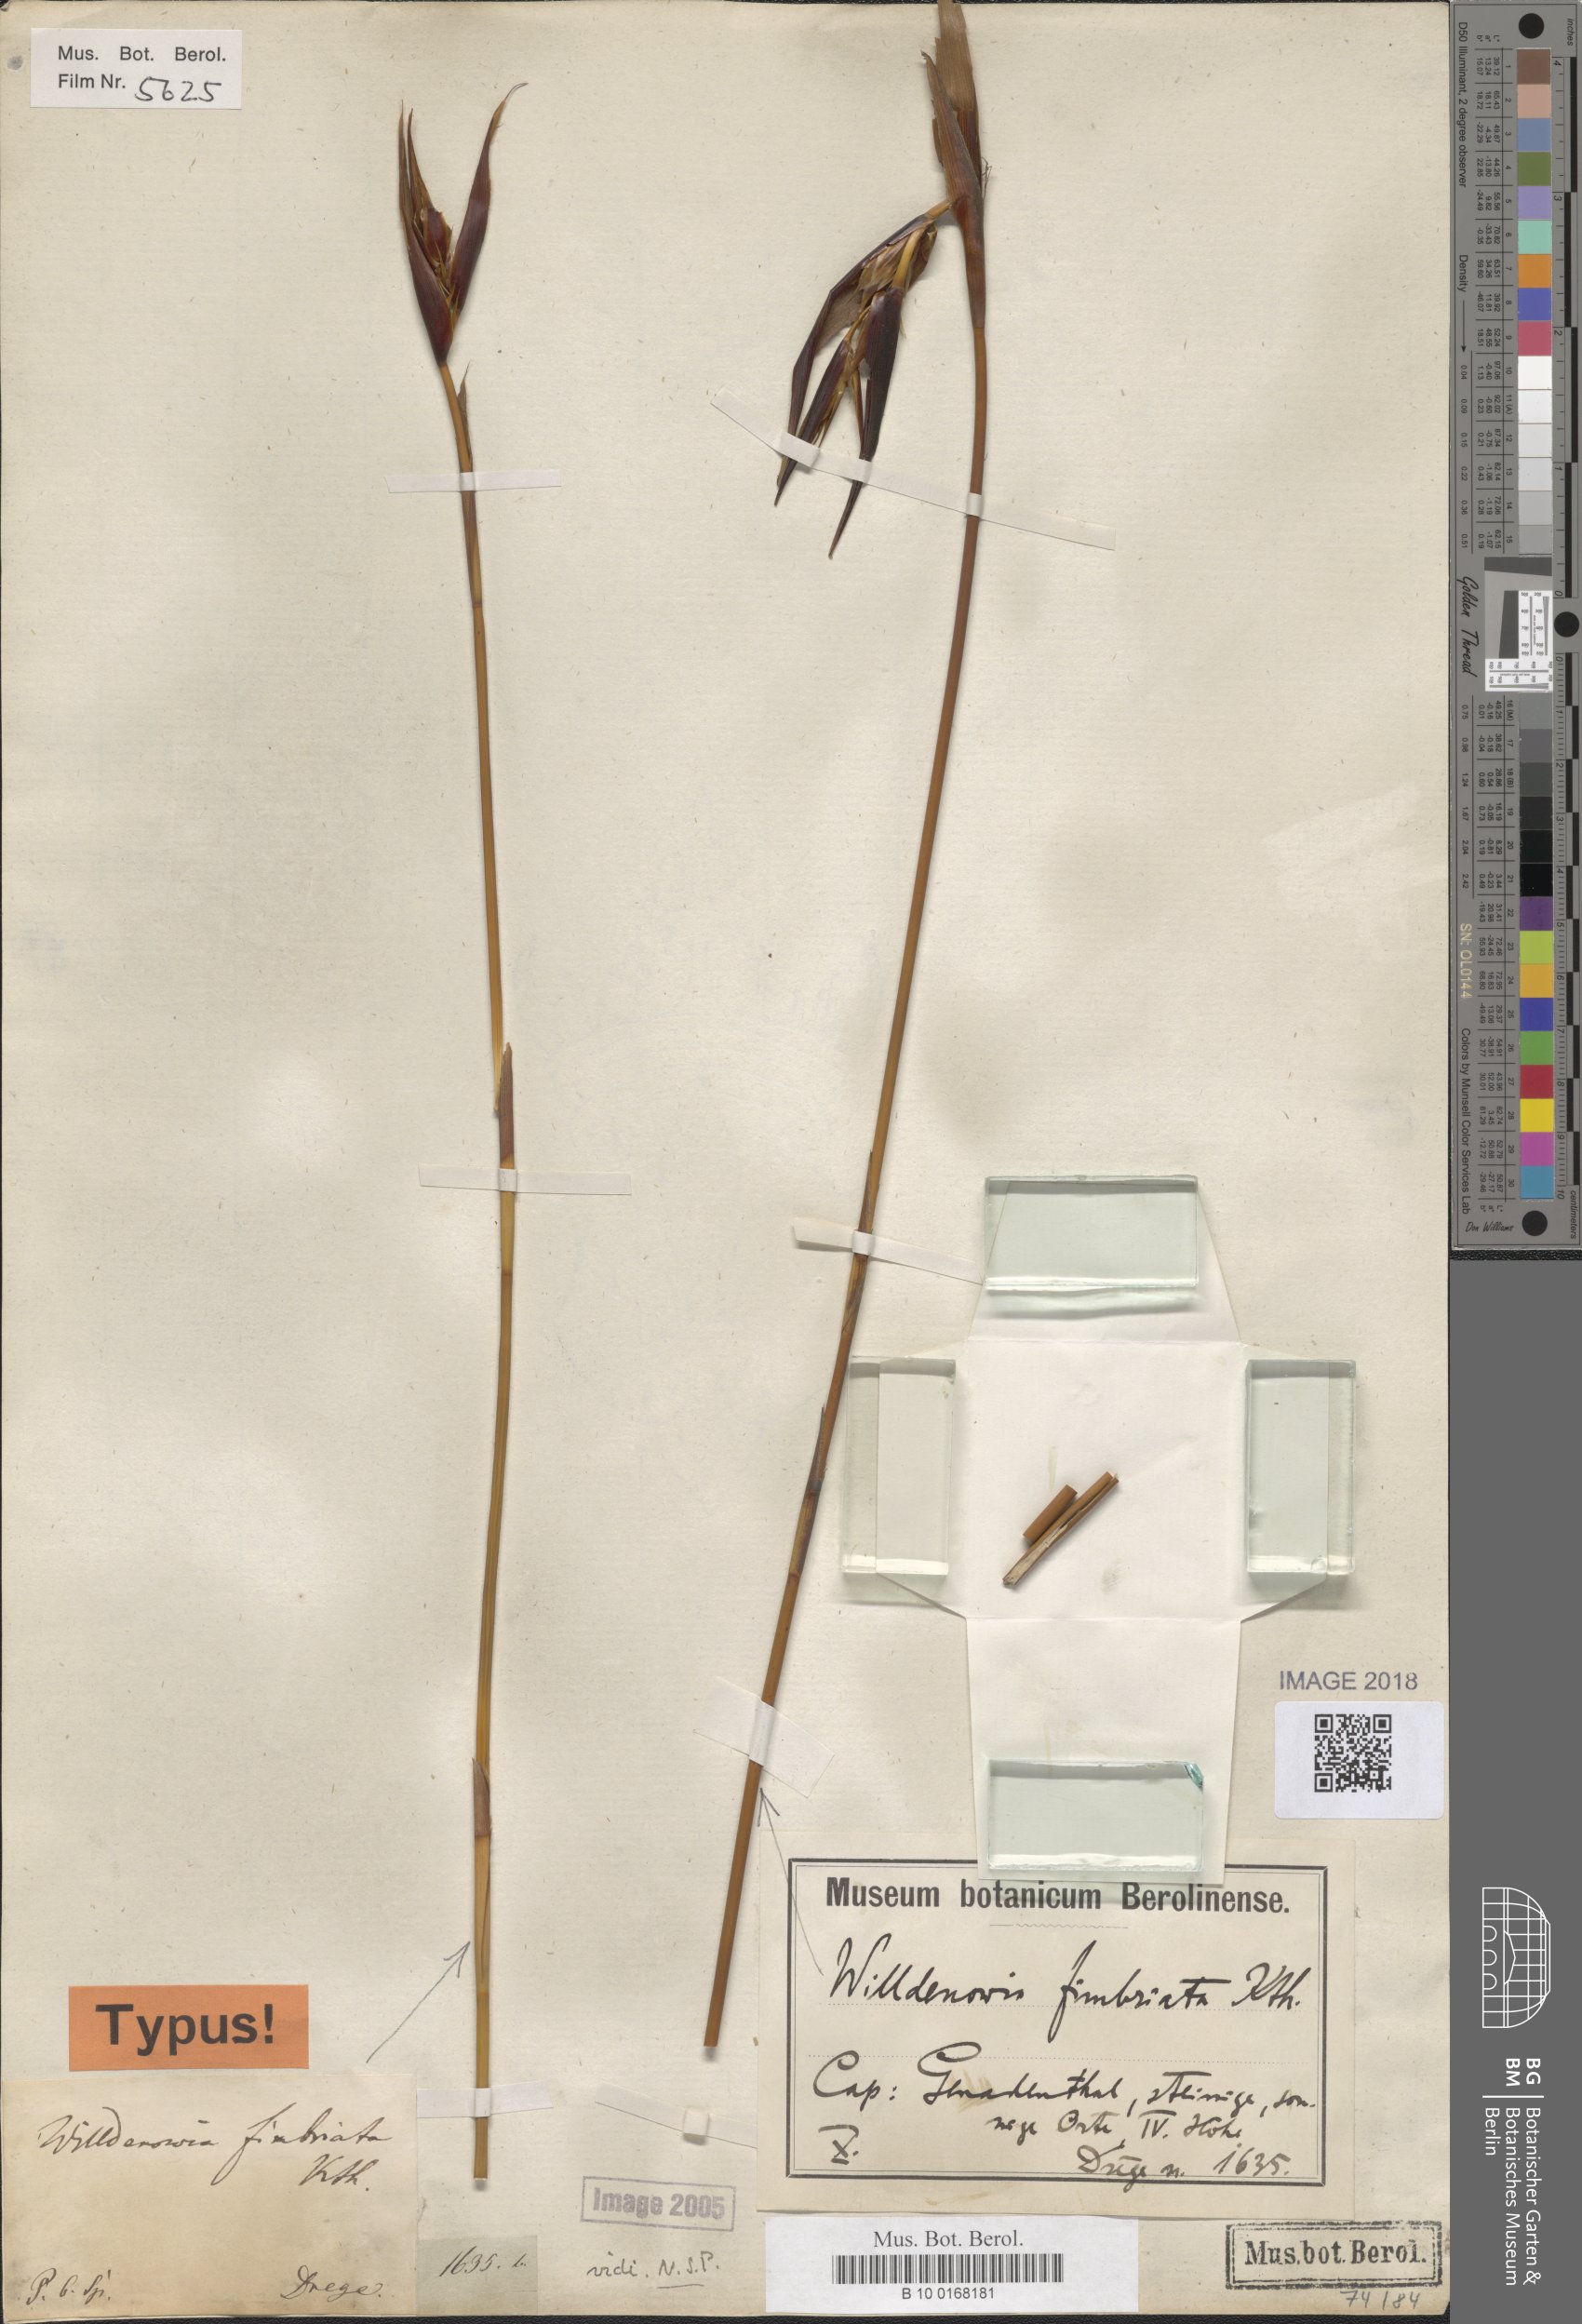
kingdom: Plantae
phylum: Tracheophyta
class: Liliopsida
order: Poales
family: Restionaceae
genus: Ceratocaryum
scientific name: Ceratocaryum fimbriatum
